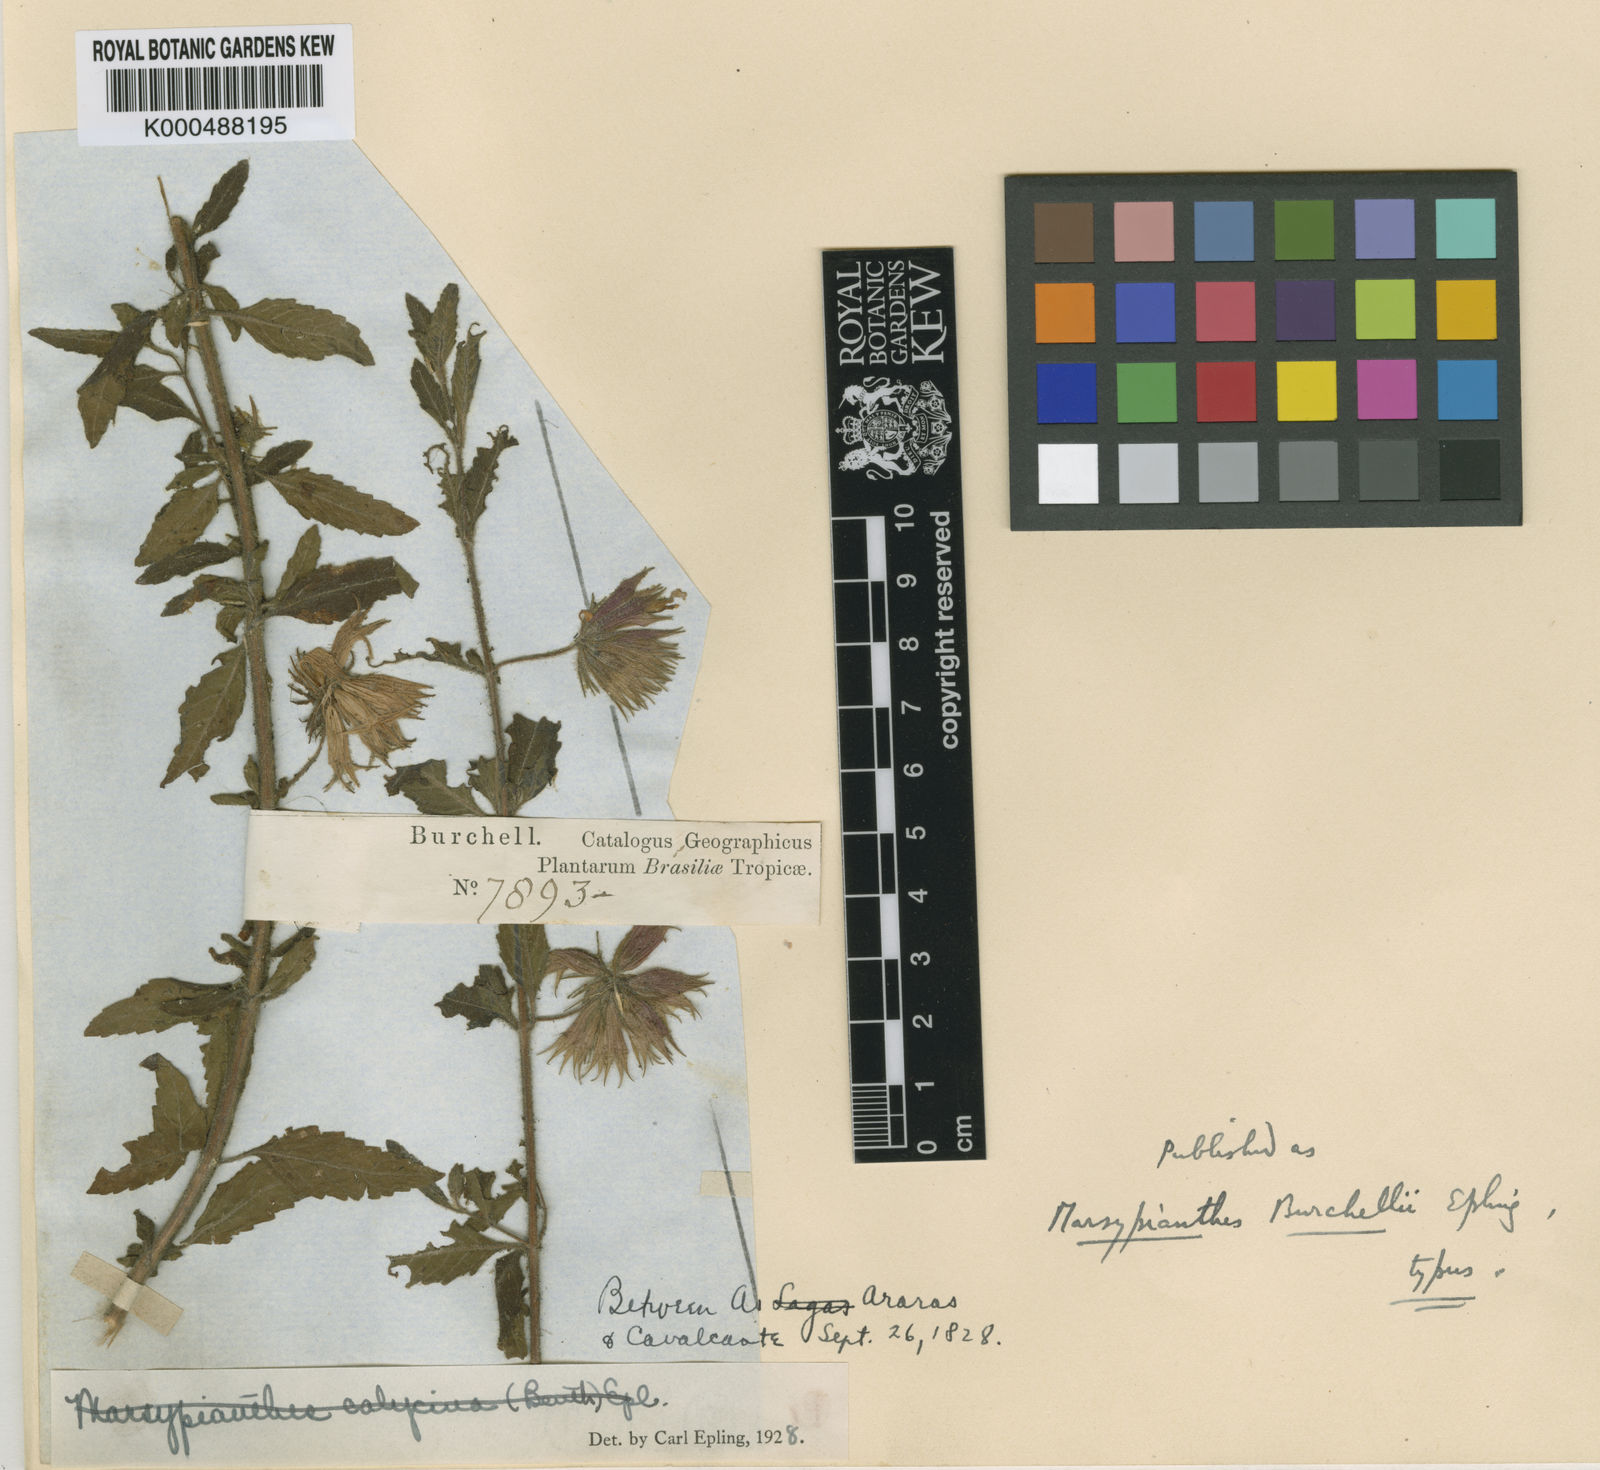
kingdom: Plantae
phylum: Tracheophyta
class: Magnoliopsida
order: Lamiales
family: Lamiaceae
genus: Marsypianthes
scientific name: Marsypianthes burchellii
